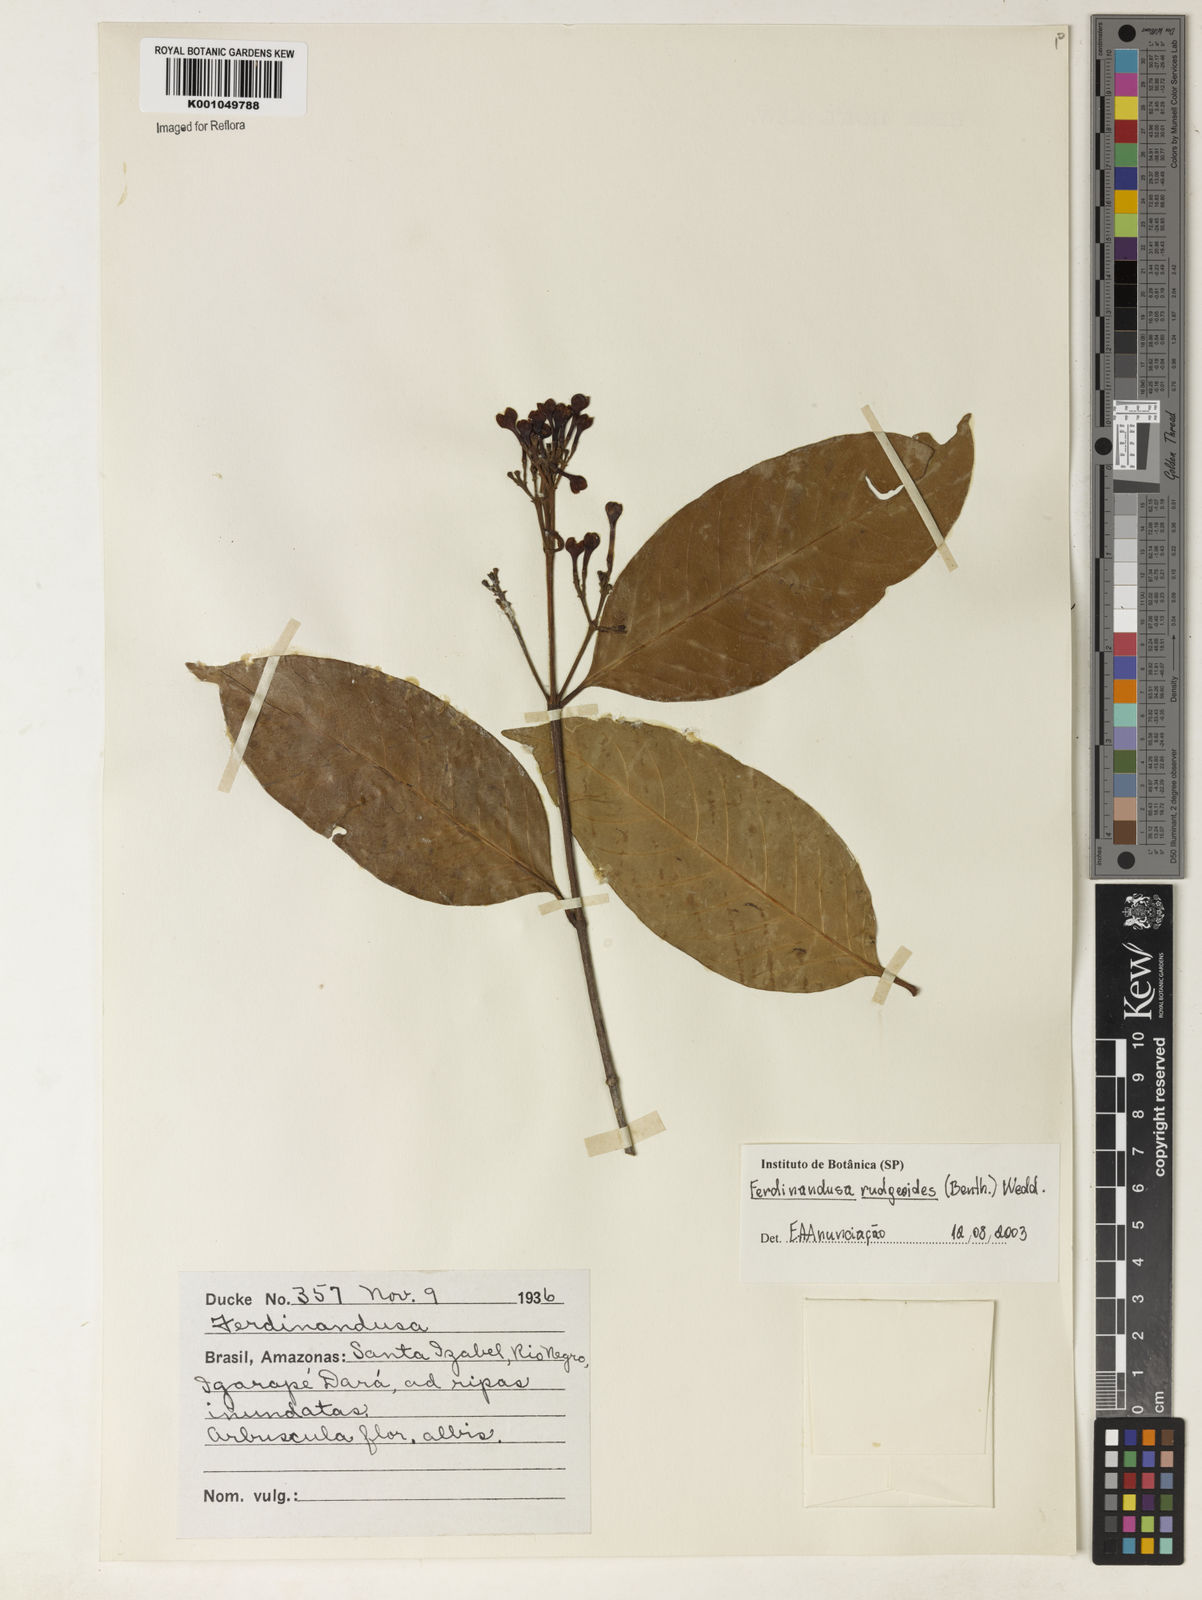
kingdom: Plantae
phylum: Tracheophyta
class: Magnoliopsida
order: Gentianales
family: Rubiaceae
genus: Ferdinandusa
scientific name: Ferdinandusa rudgeoides
